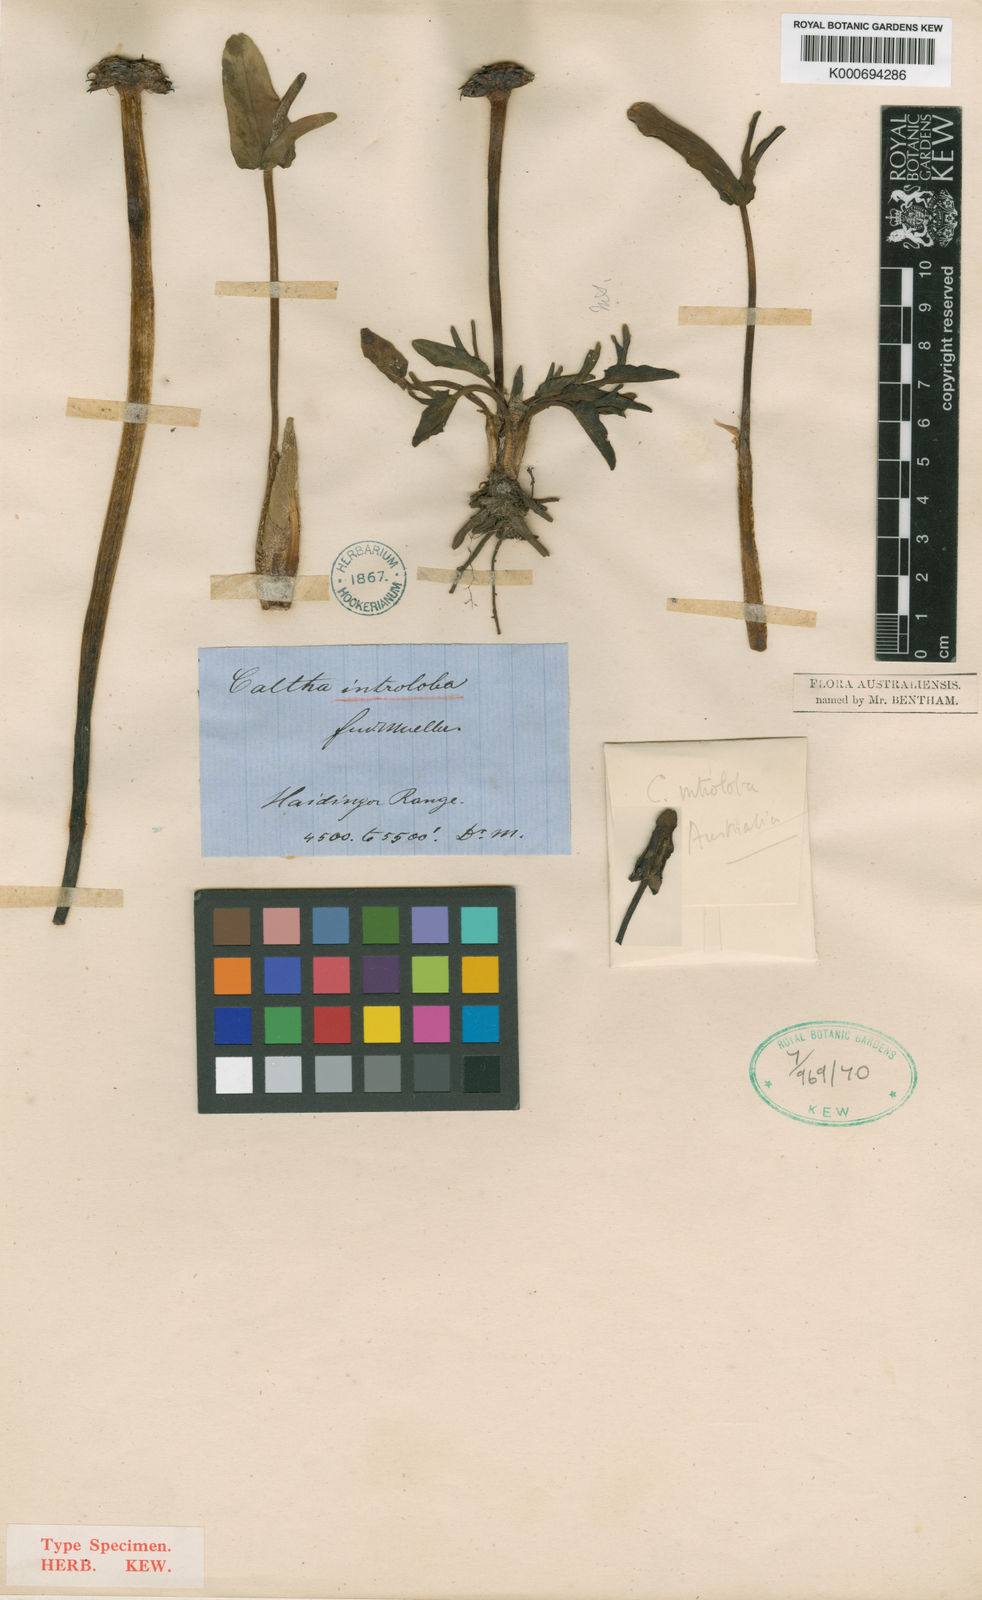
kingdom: Plantae
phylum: Tracheophyta
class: Magnoliopsida
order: Ranunculales
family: Ranunculaceae
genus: Caltha
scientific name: Caltha introloba
